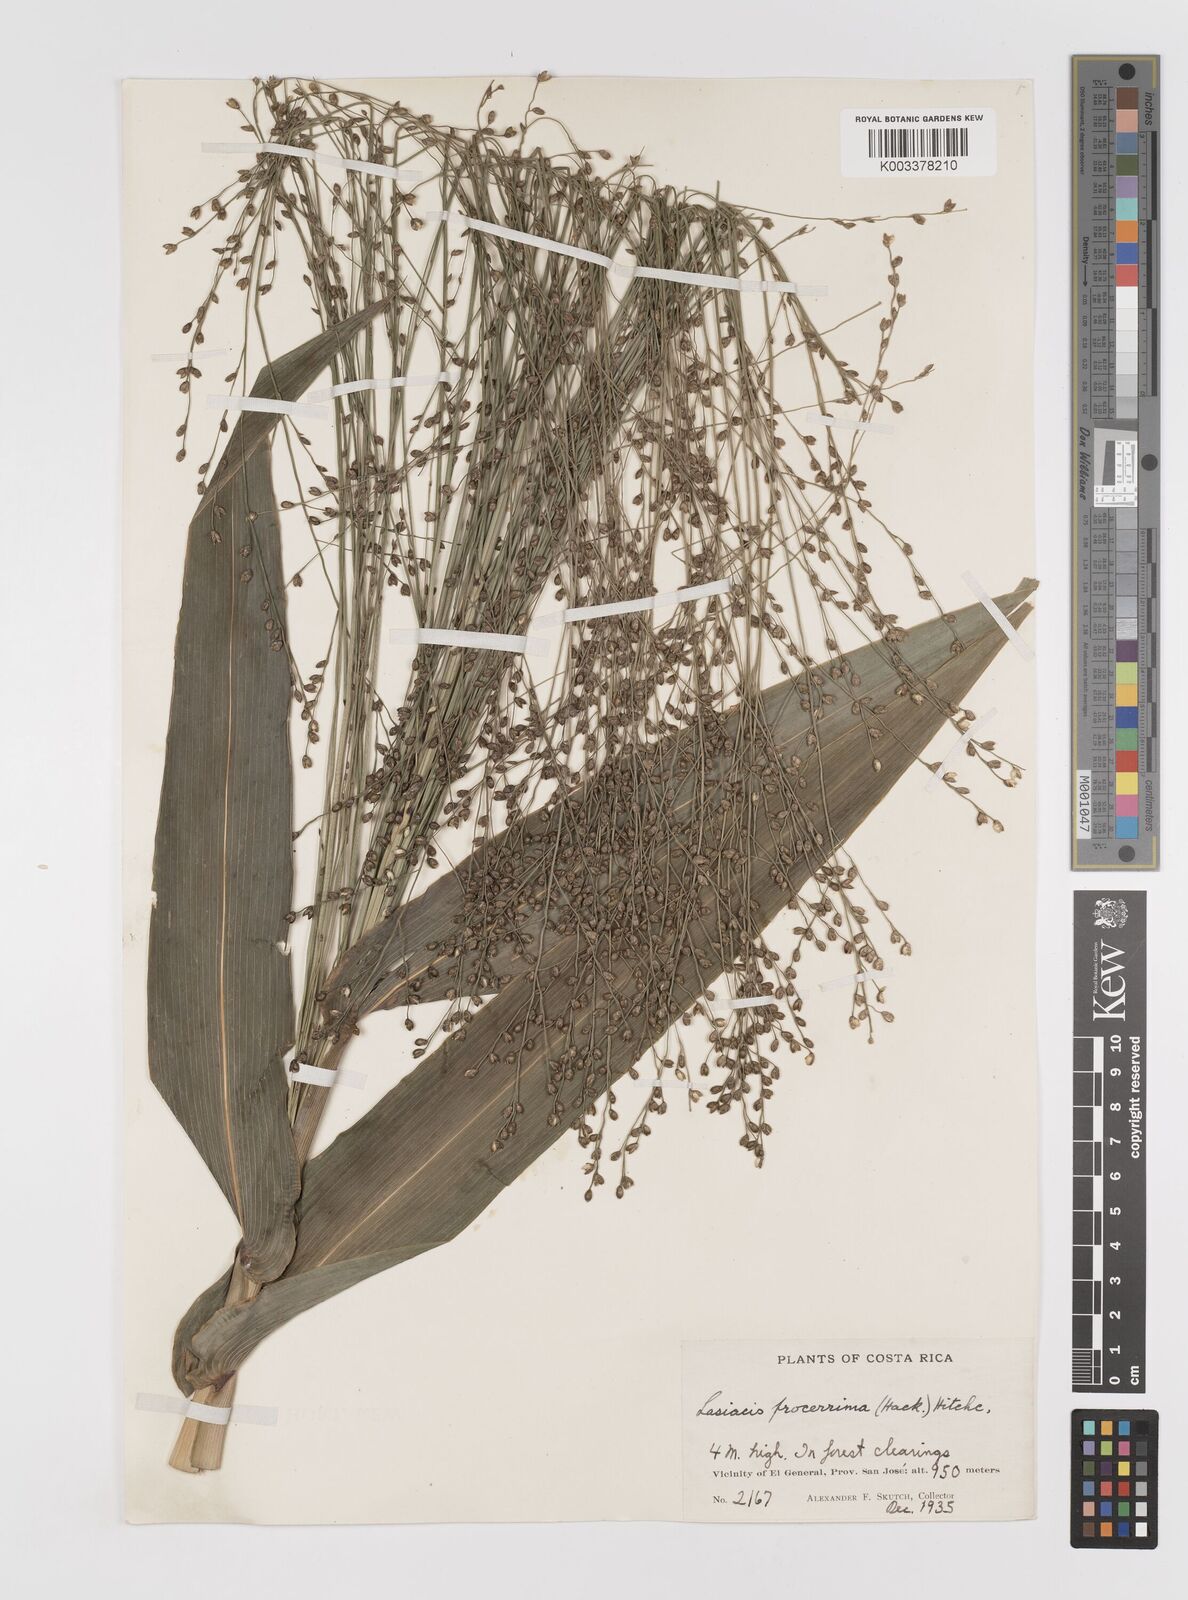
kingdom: Plantae
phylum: Tracheophyta
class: Liliopsida
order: Poales
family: Poaceae
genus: Lasiacis
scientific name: Lasiacis procerrima
